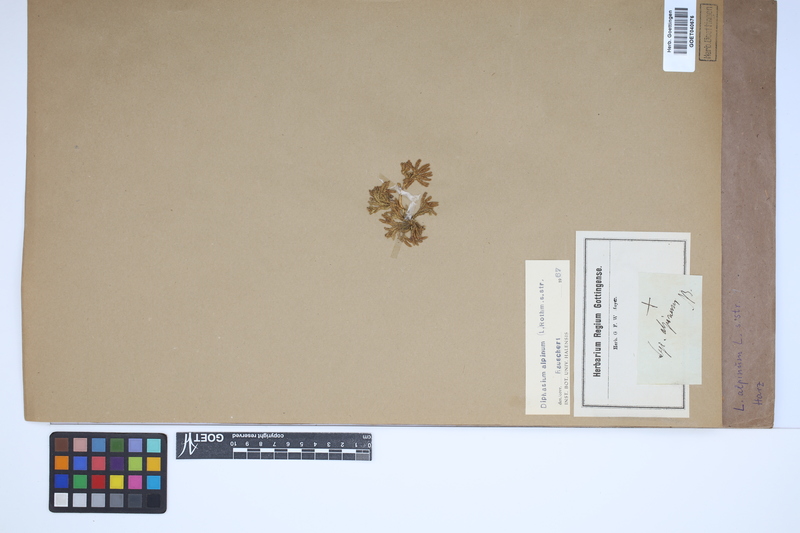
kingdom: Plantae
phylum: Tracheophyta
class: Lycopodiopsida
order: Lycopodiales
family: Lycopodiaceae
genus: Diphasiastrum
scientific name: Diphasiastrum alpinum
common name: Alpine clubmoss
